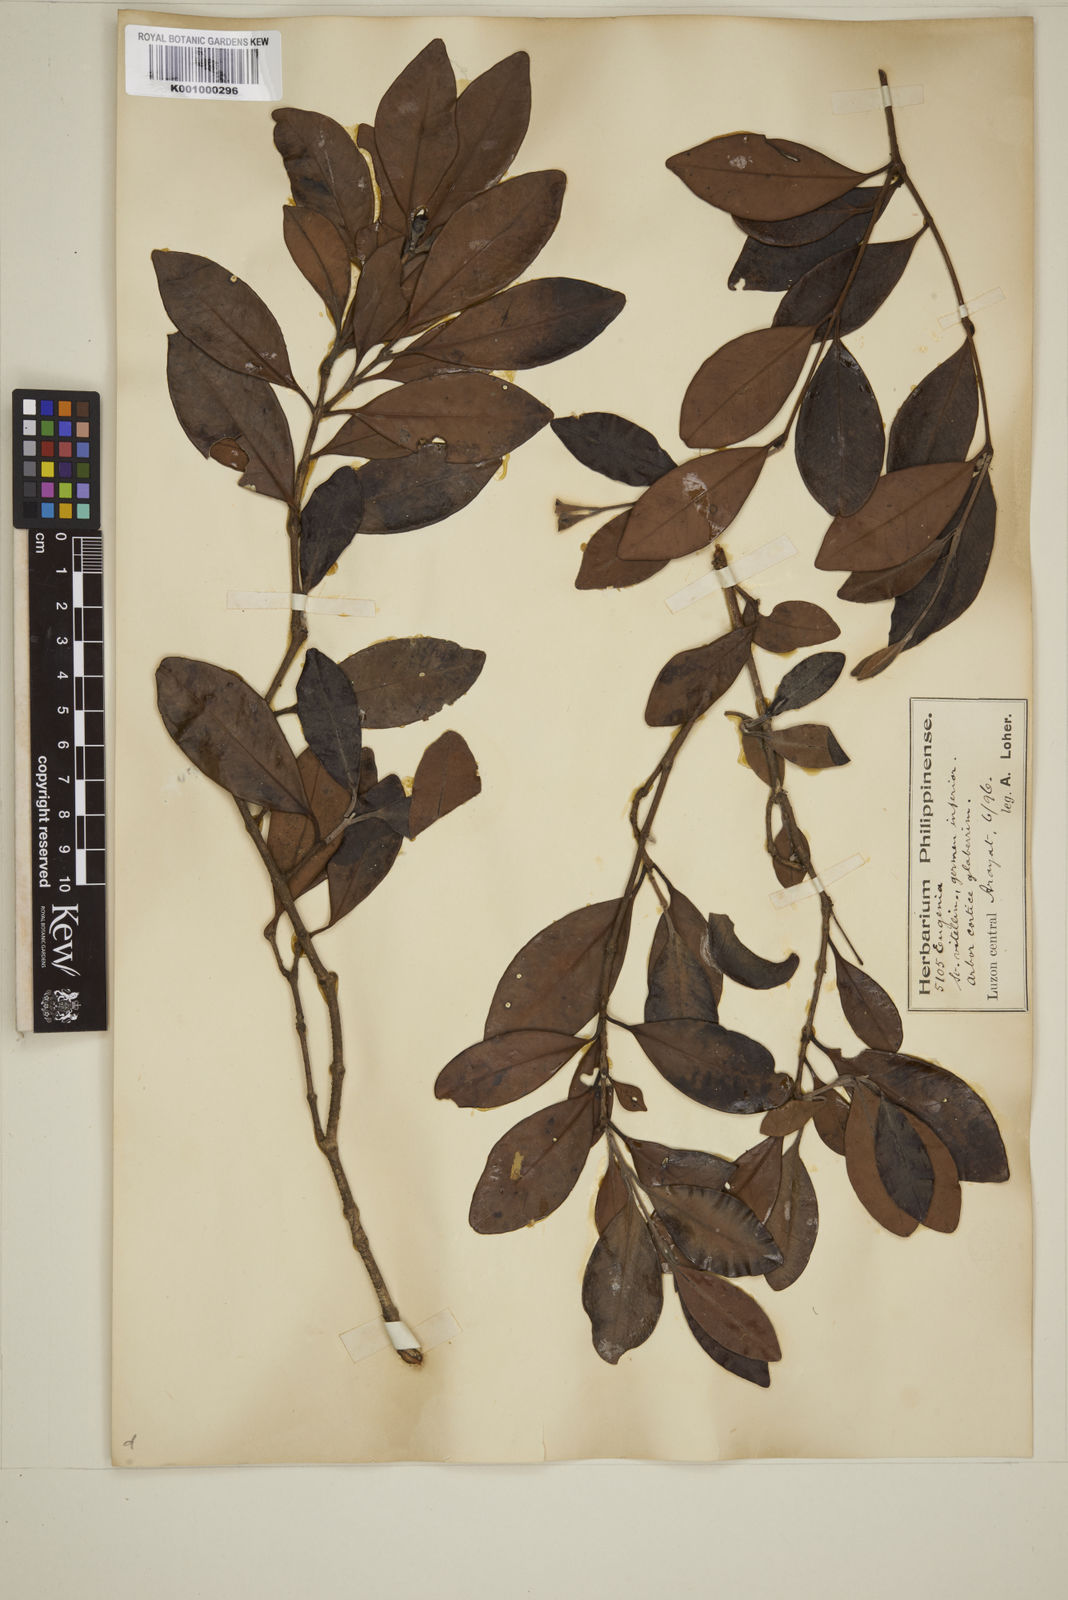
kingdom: Plantae
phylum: Tracheophyta
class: Magnoliopsida
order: Myrtales
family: Myrtaceae
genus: Eugenia
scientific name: Eugenia sargentii
